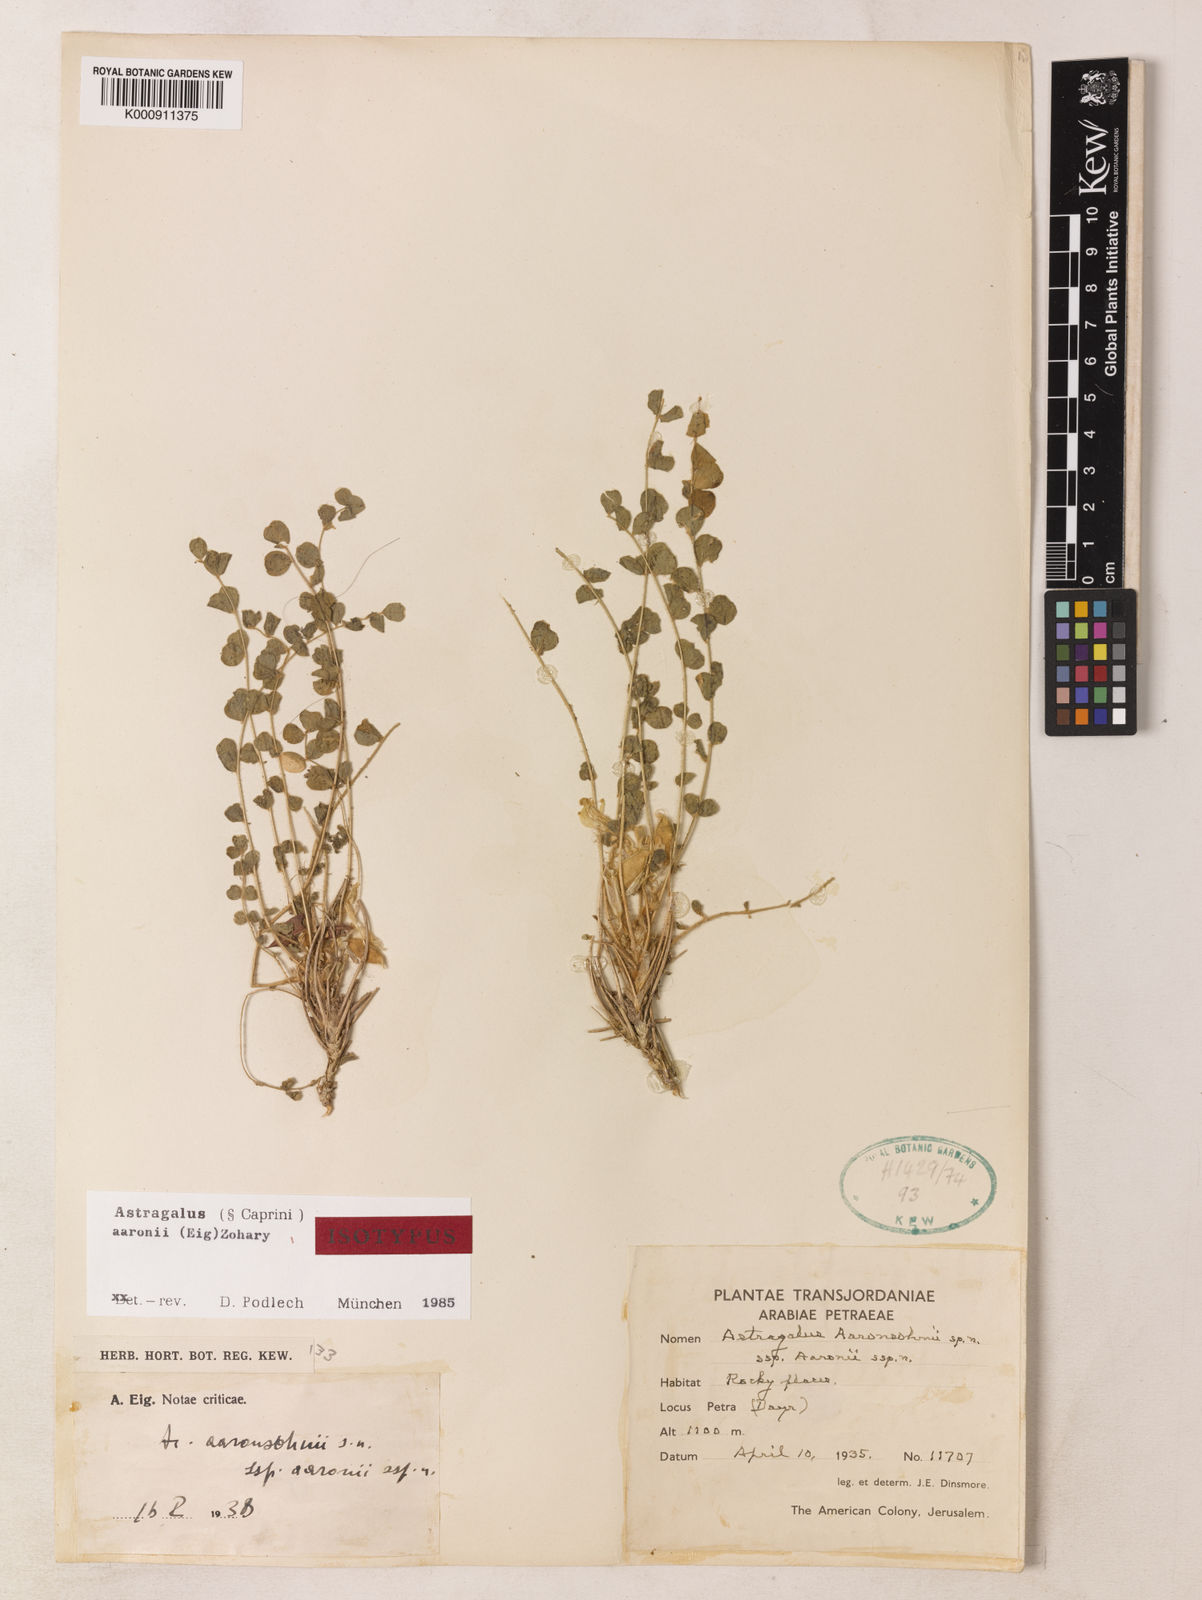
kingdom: Plantae
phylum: Tracheophyta
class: Magnoliopsida
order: Fabales
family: Fabaceae
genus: Astragalus
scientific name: Astragalus aaronii
